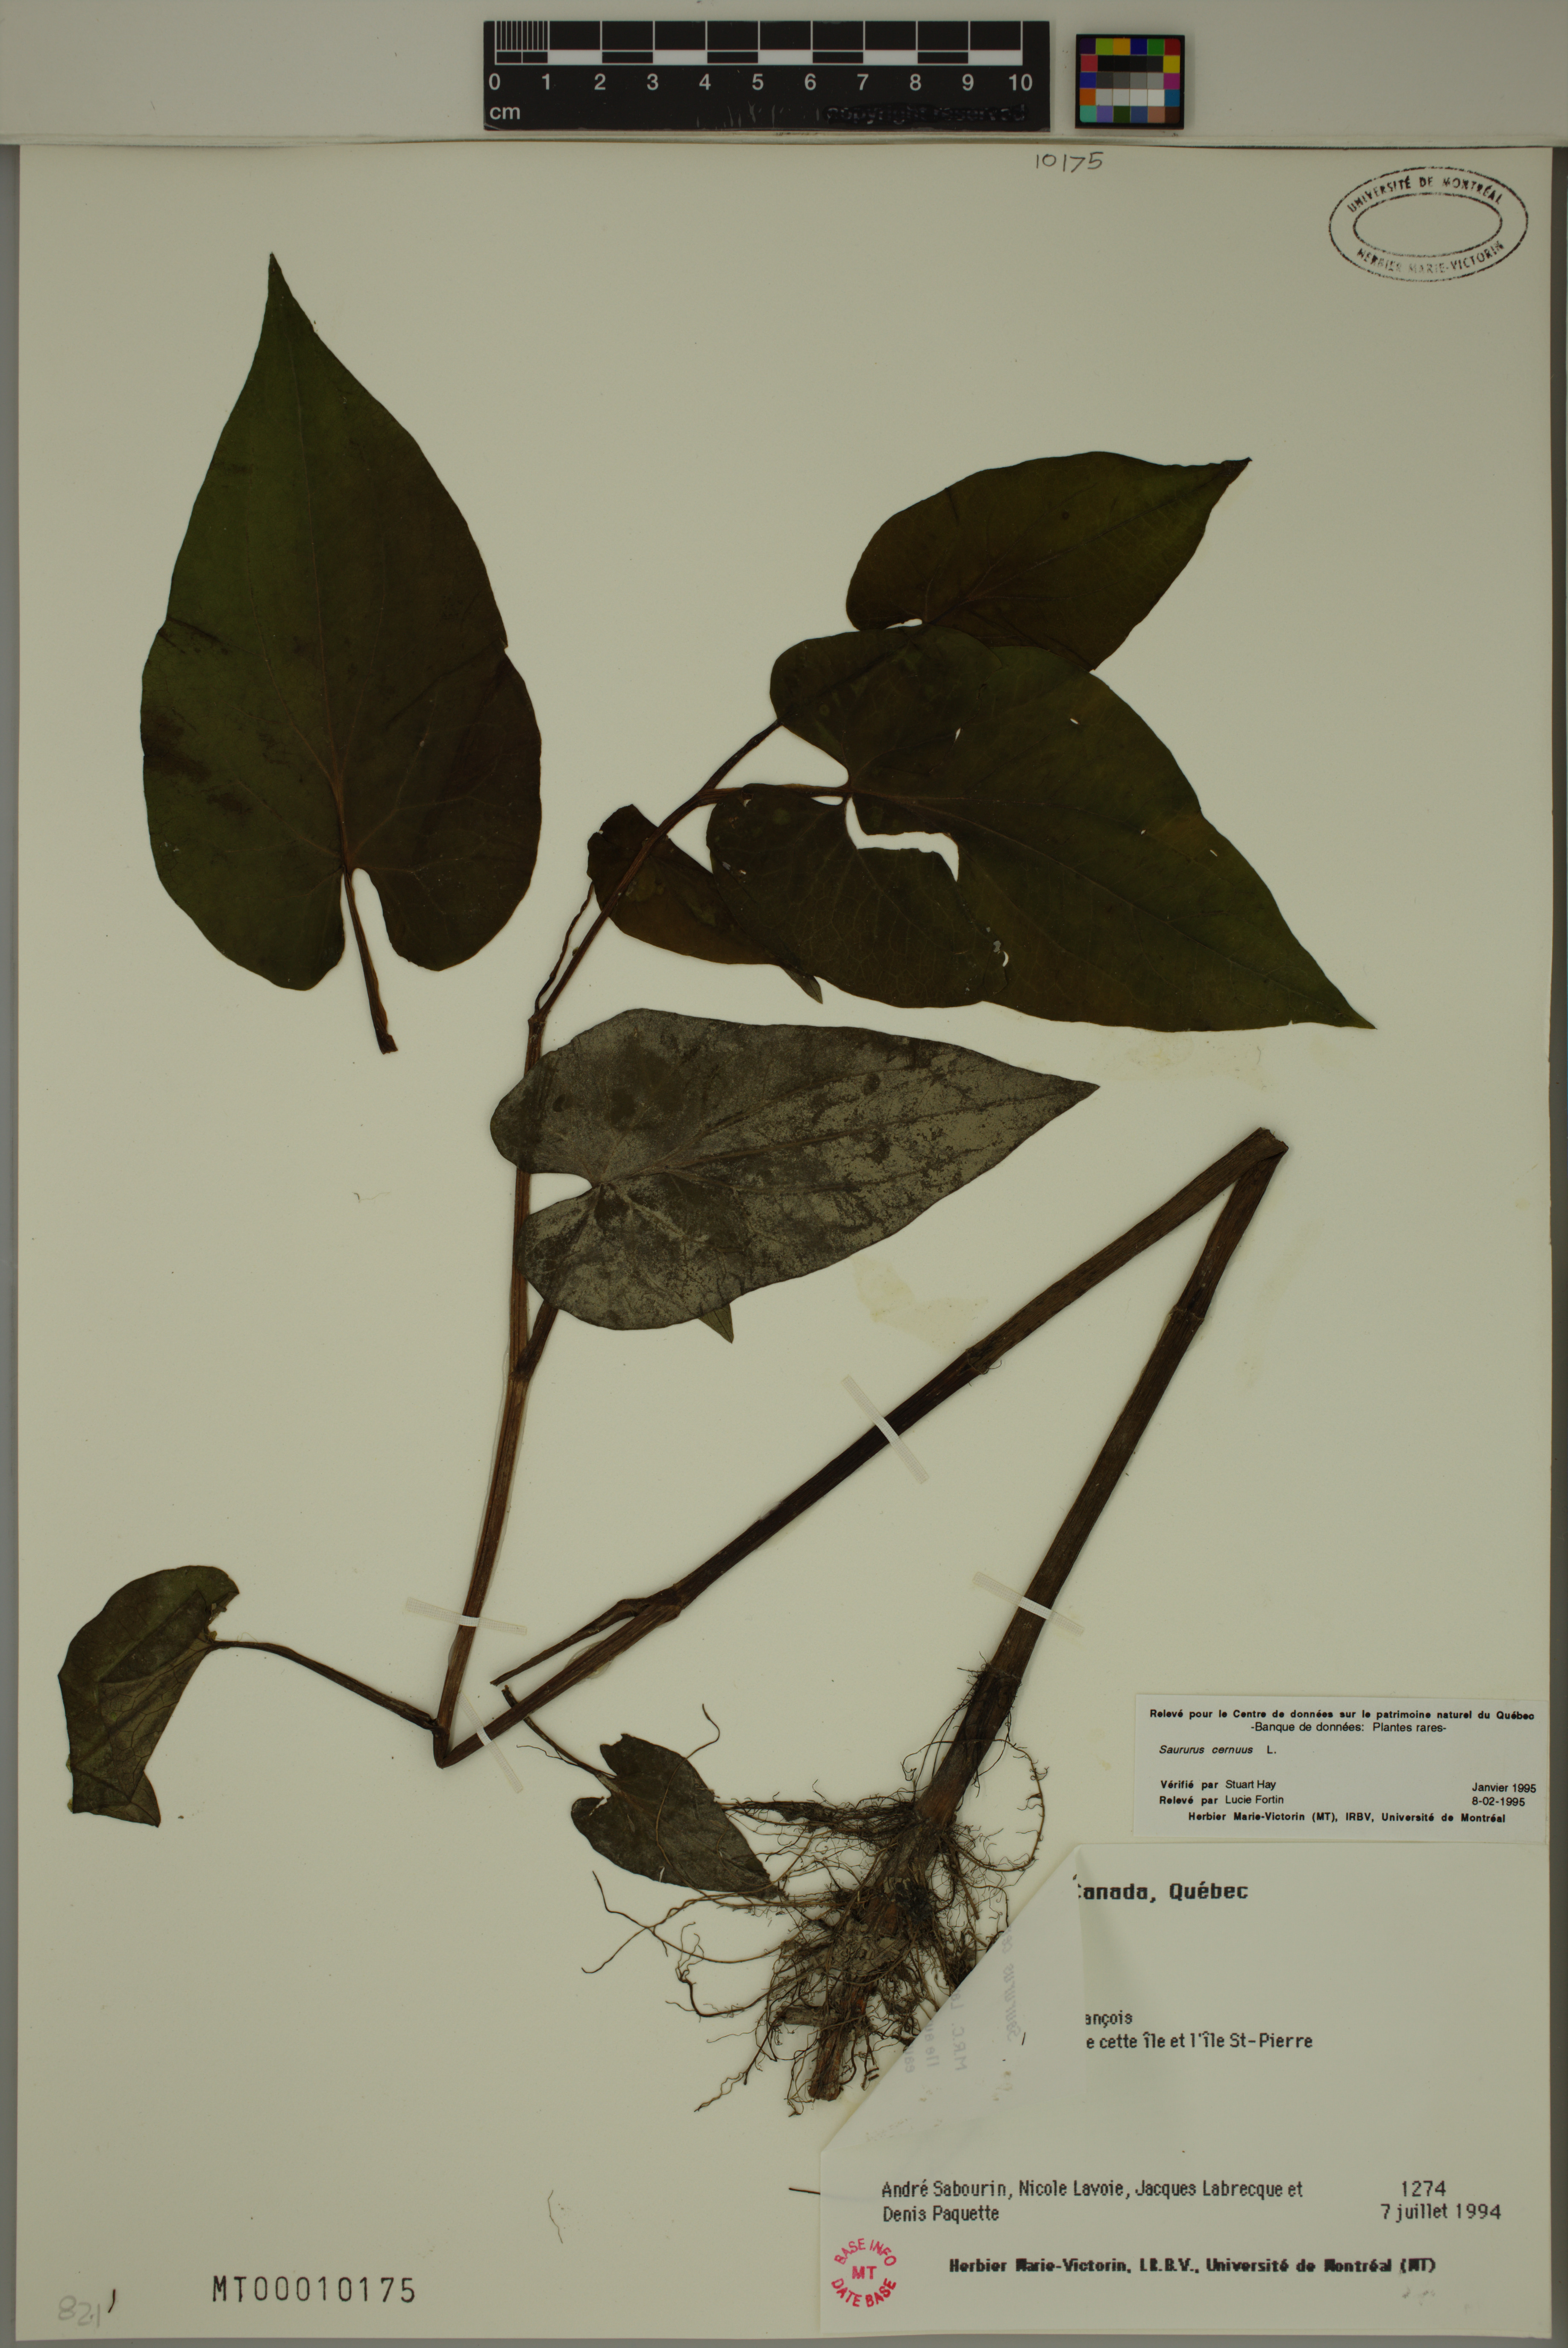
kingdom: Plantae
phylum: Tracheophyta
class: Magnoliopsida
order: Piperales
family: Saururaceae
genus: Saururus
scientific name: Saururus cernuus
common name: Lizard's-tail
